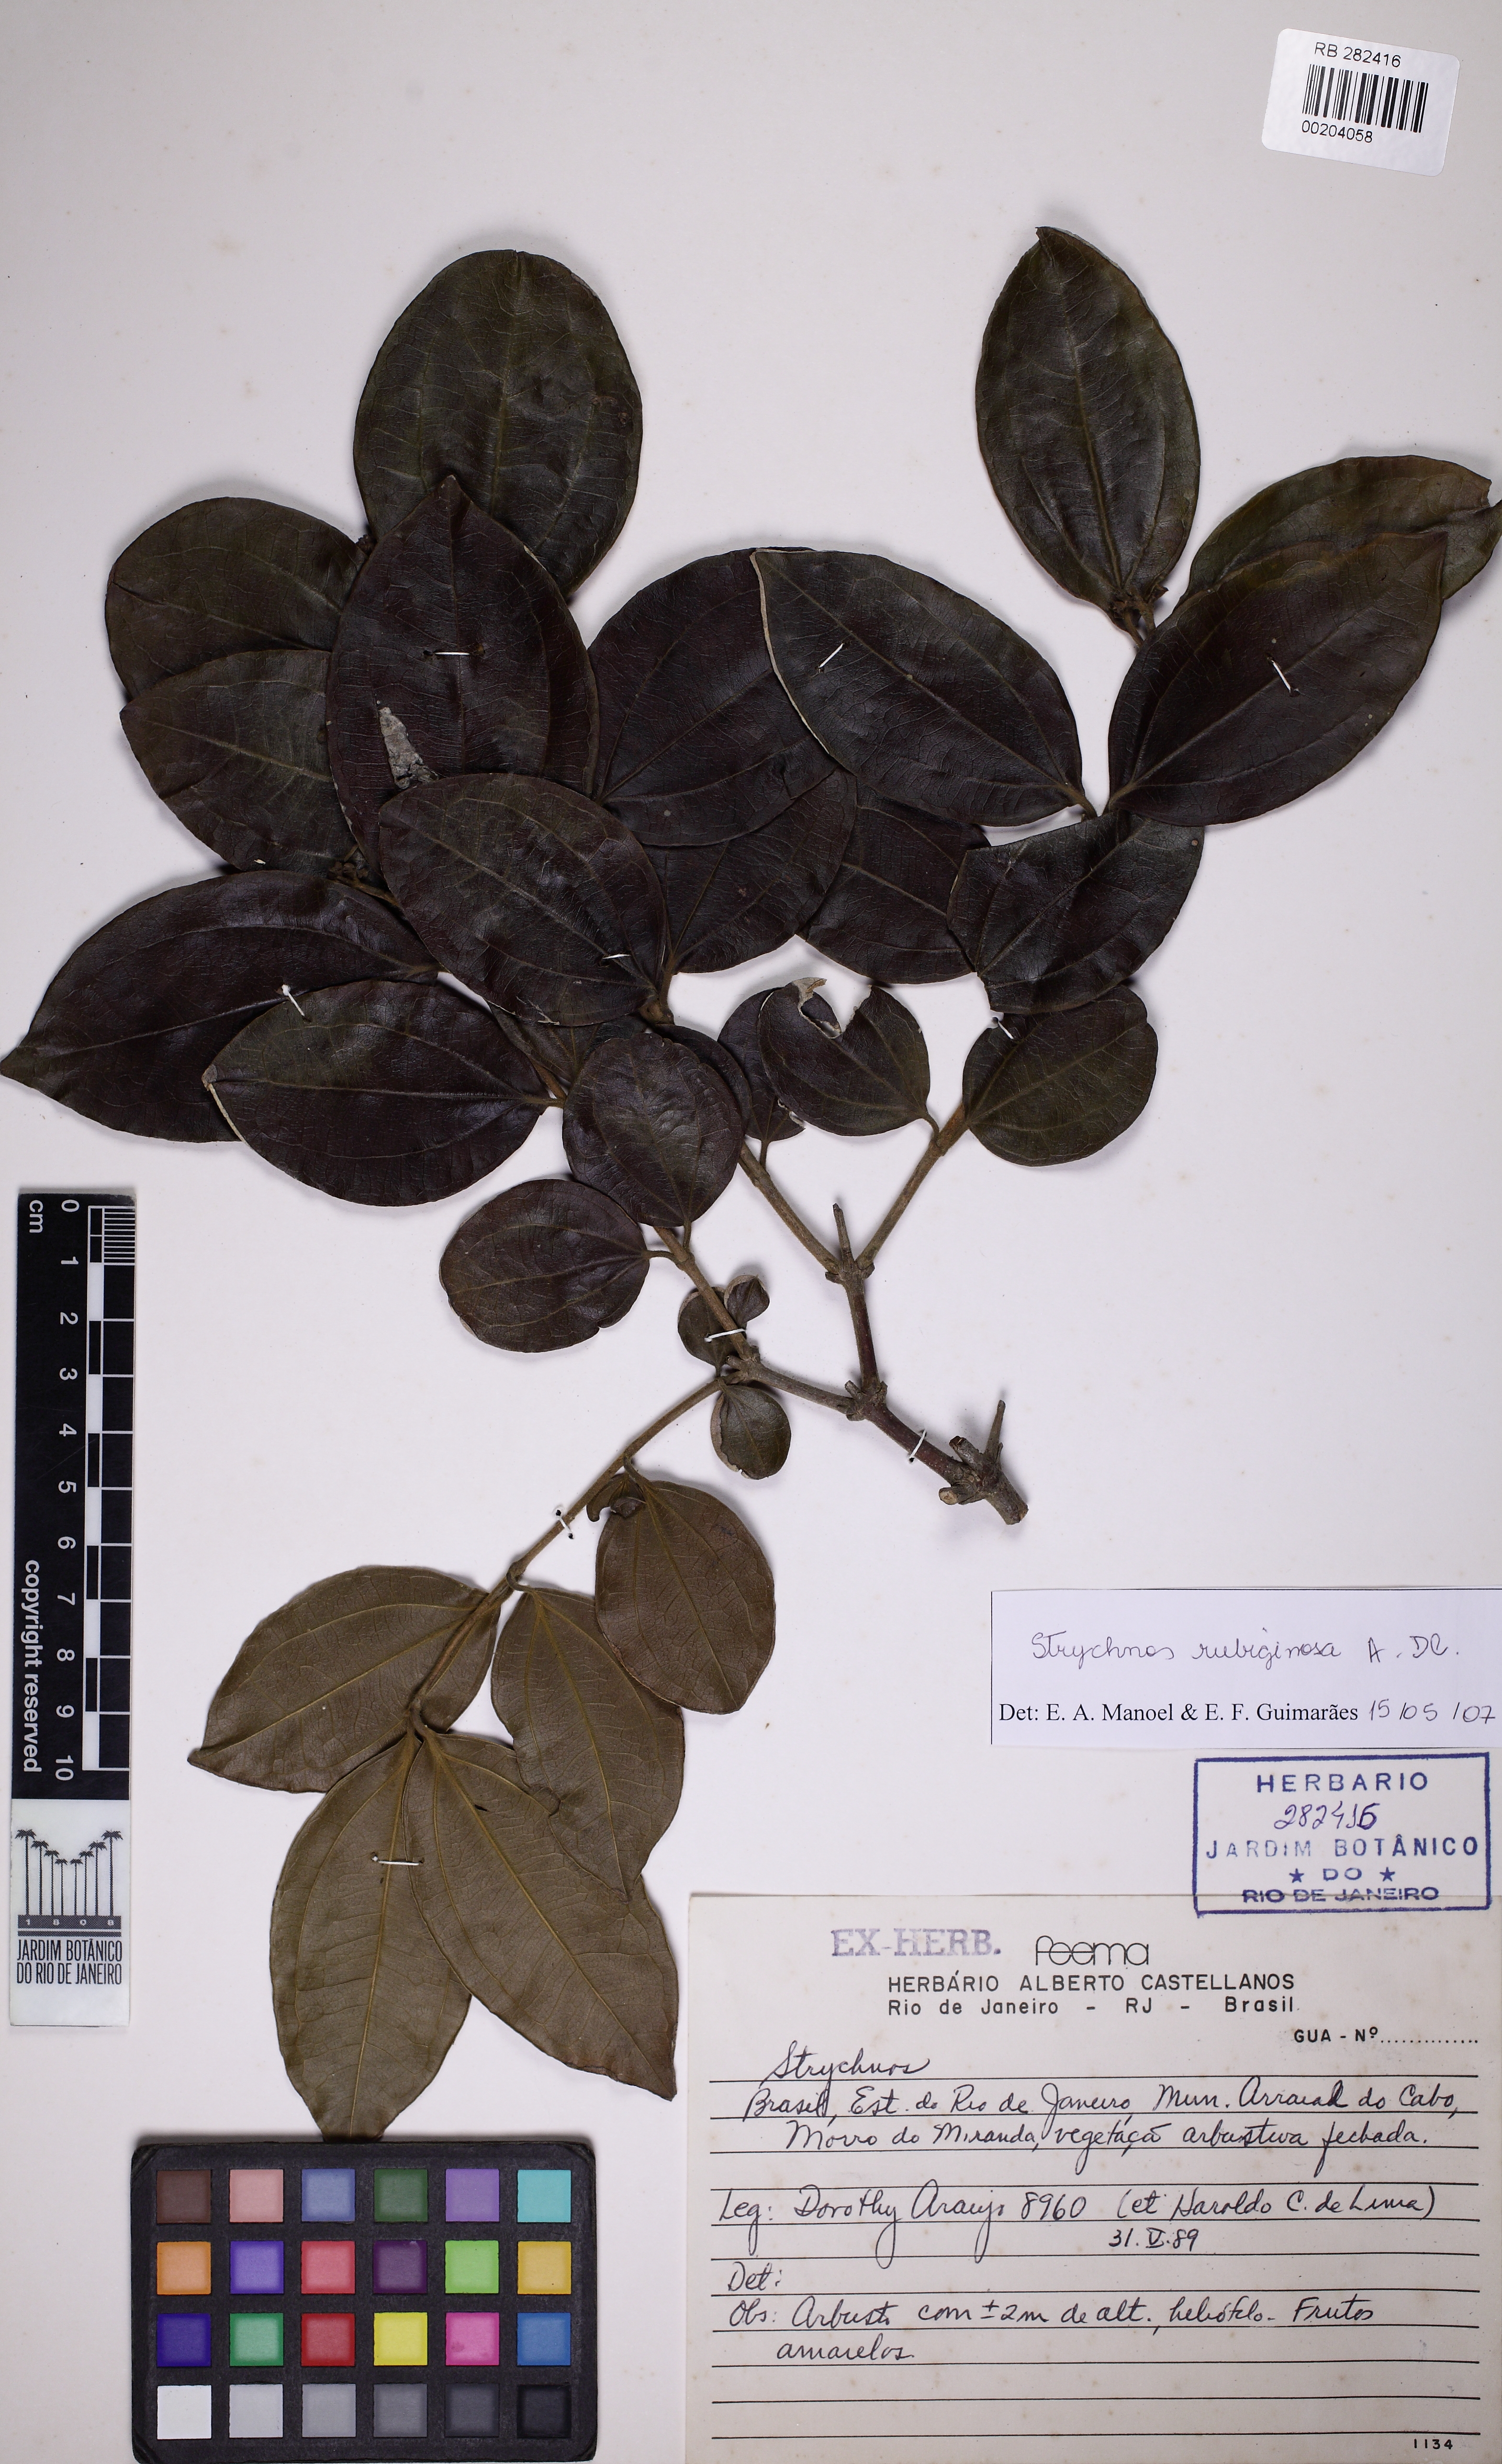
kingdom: Plantae
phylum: Tracheophyta
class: Magnoliopsida
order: Gentianales
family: Loganiaceae
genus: Strychnos
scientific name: Strychnos rubiginosa
